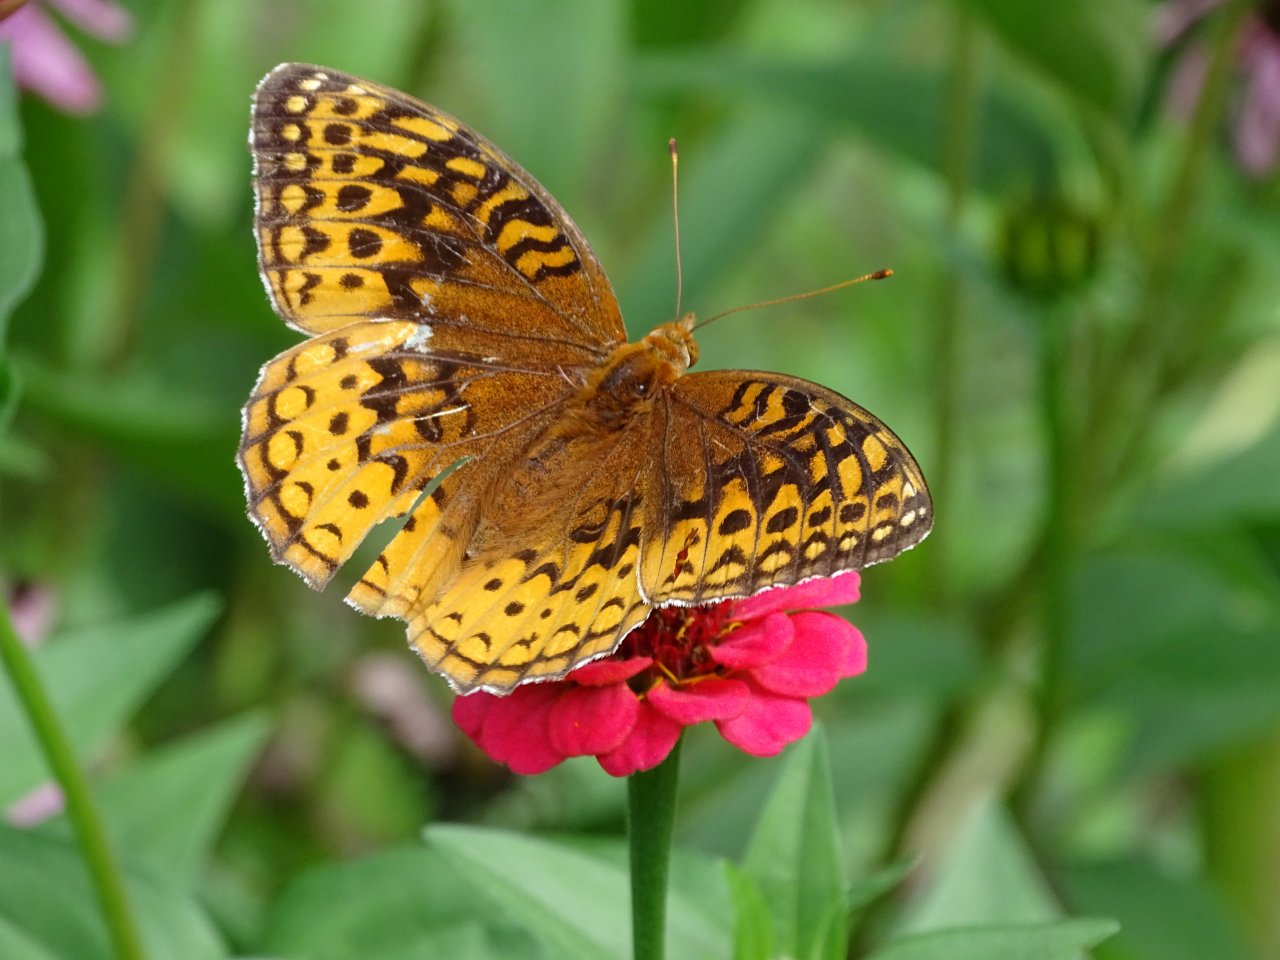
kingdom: Animalia
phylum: Arthropoda
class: Insecta
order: Lepidoptera
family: Nymphalidae
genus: Speyeria
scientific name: Speyeria cybele
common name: Great Spangled Fritillary
